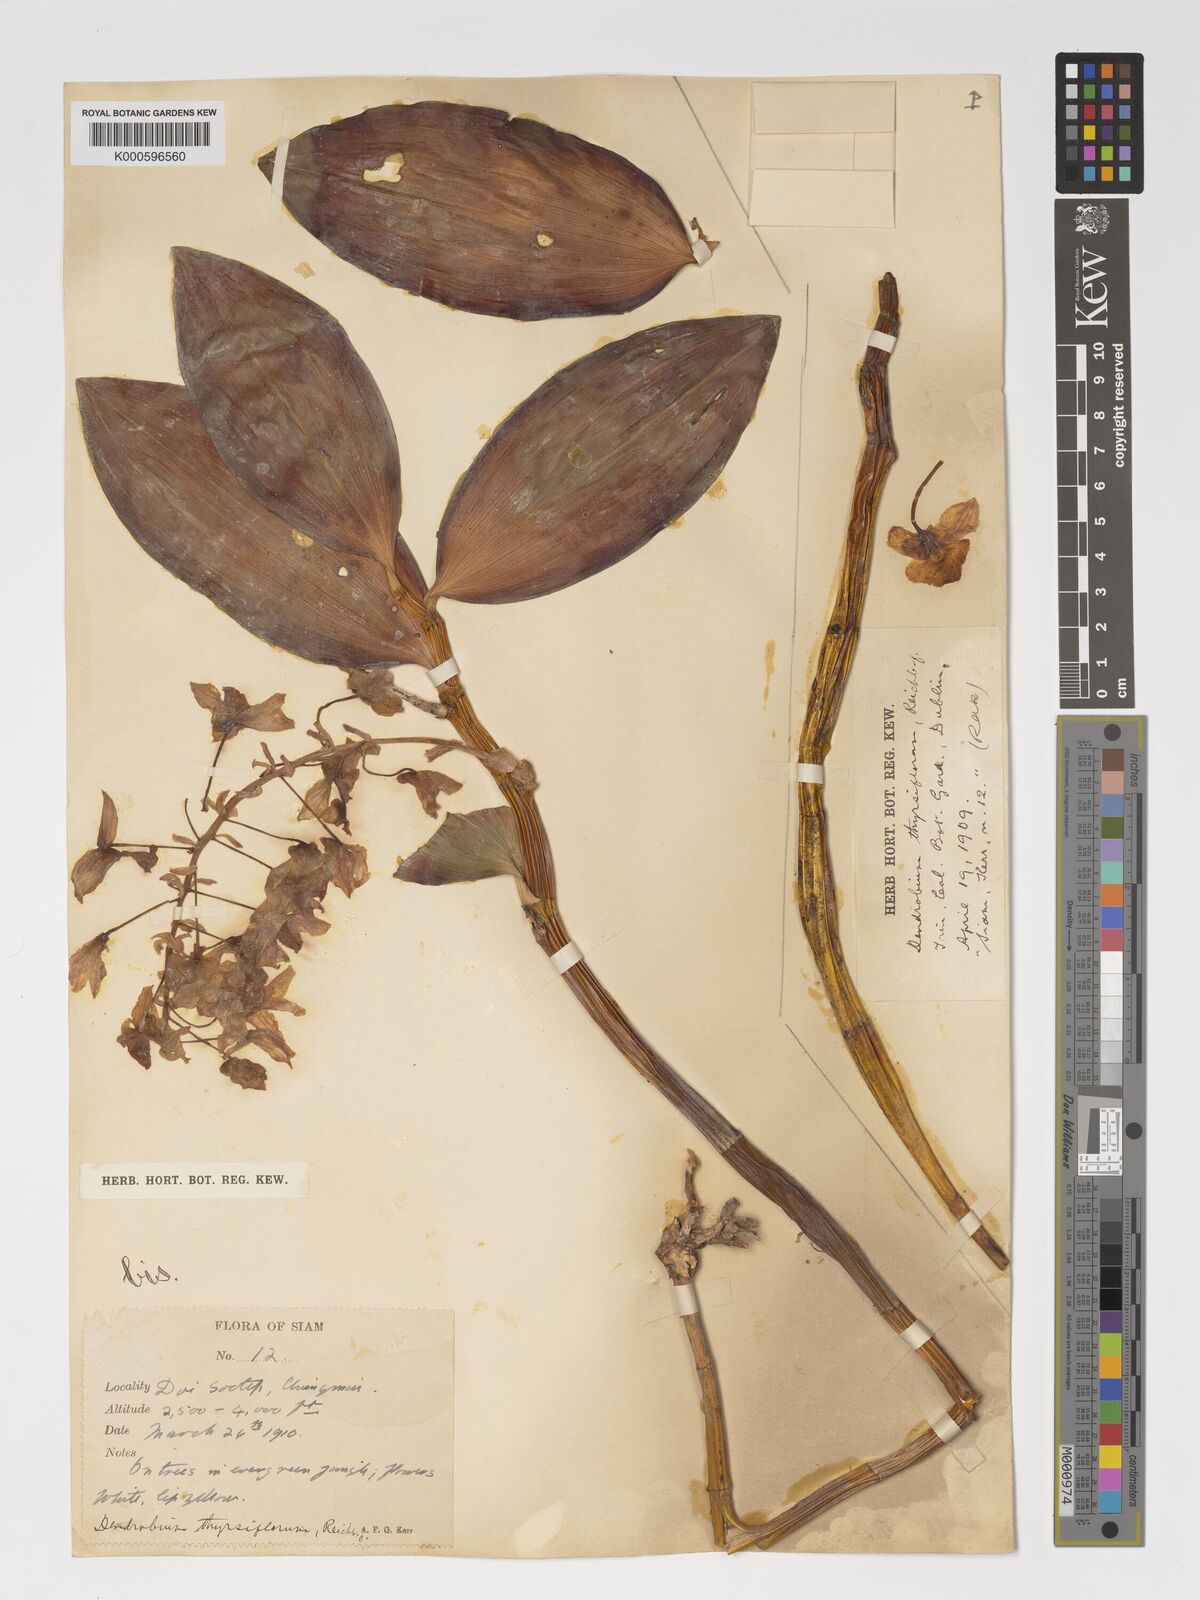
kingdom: Plantae
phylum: Tracheophyta
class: Liliopsida
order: Asparagales
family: Orchidaceae
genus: Dendrobium
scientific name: Dendrobium
